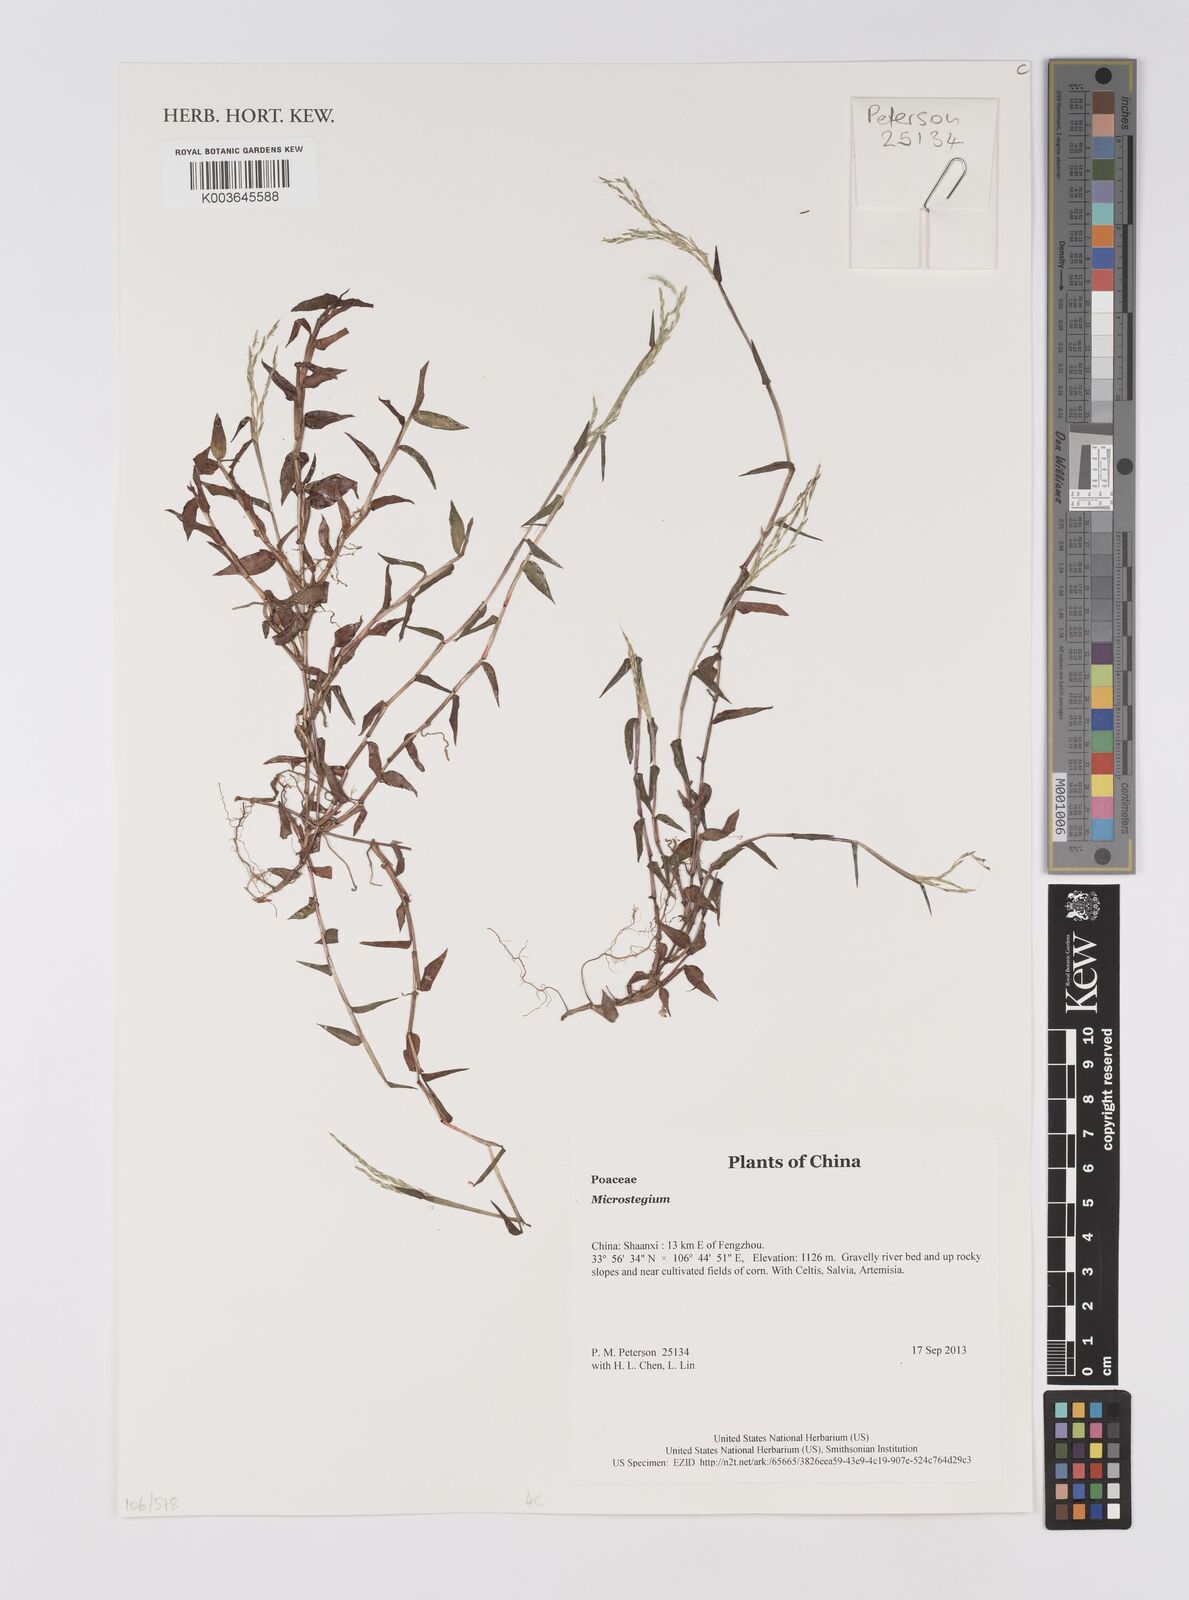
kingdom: Plantae
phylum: Tracheophyta
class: Liliopsida
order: Poales
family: Poaceae
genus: Microstegium
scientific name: Microstegium
